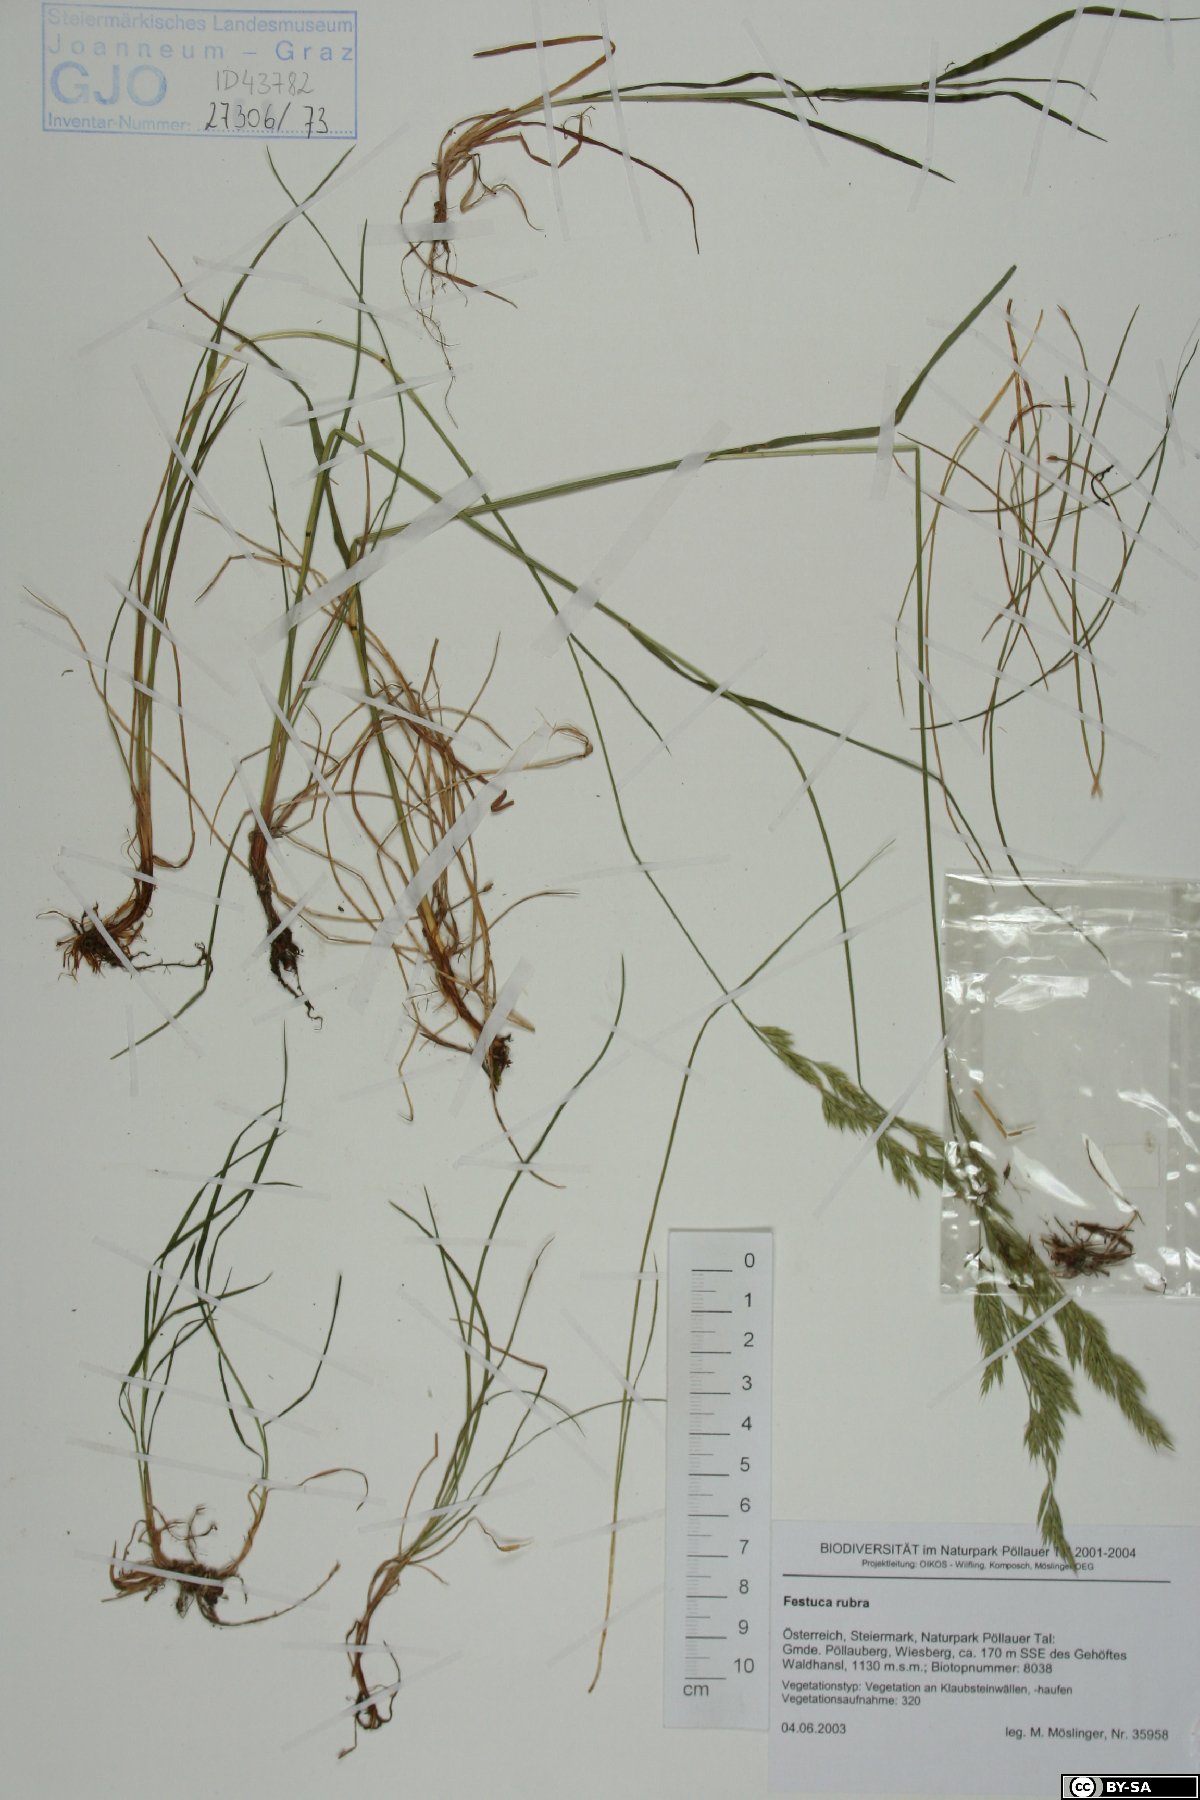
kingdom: Plantae
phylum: Tracheophyta
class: Liliopsida
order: Poales
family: Poaceae
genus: Festuca
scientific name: Festuca rubra
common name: Red fescue
